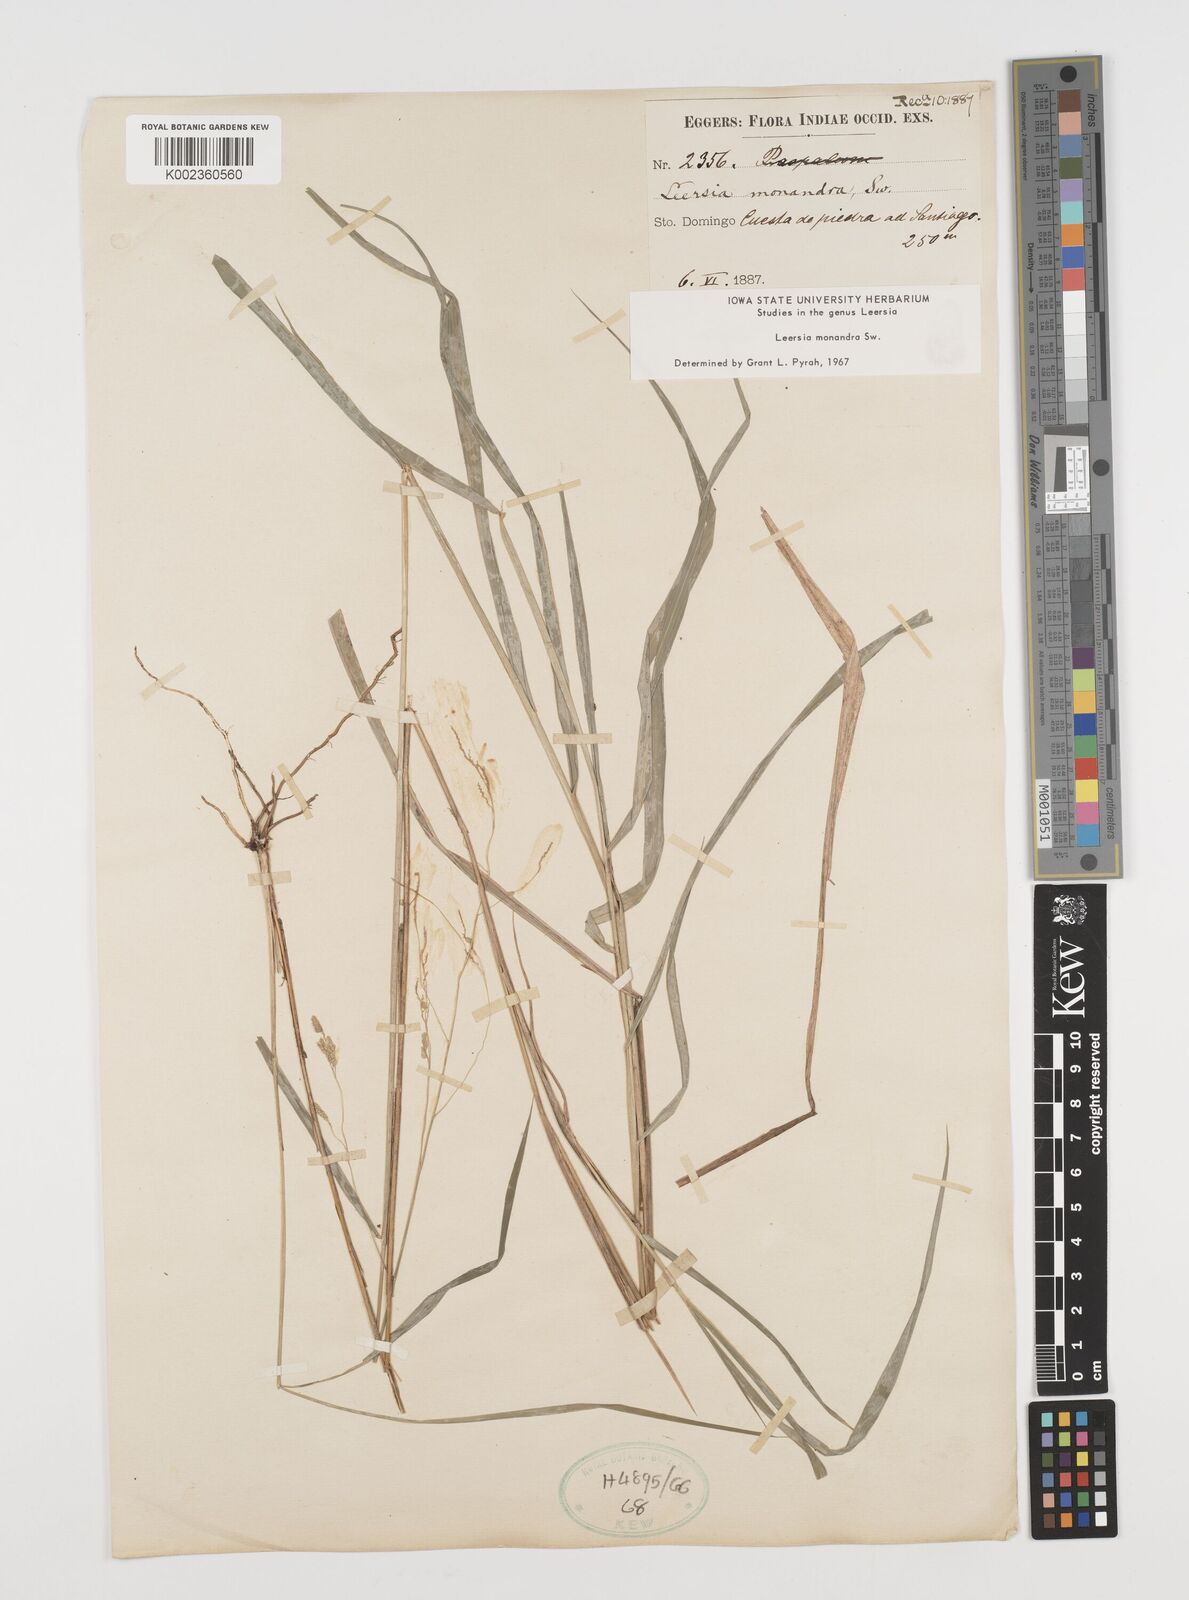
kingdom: Plantae
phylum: Tracheophyta
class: Liliopsida
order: Poales
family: Poaceae
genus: Leersia
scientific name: Leersia monandra
